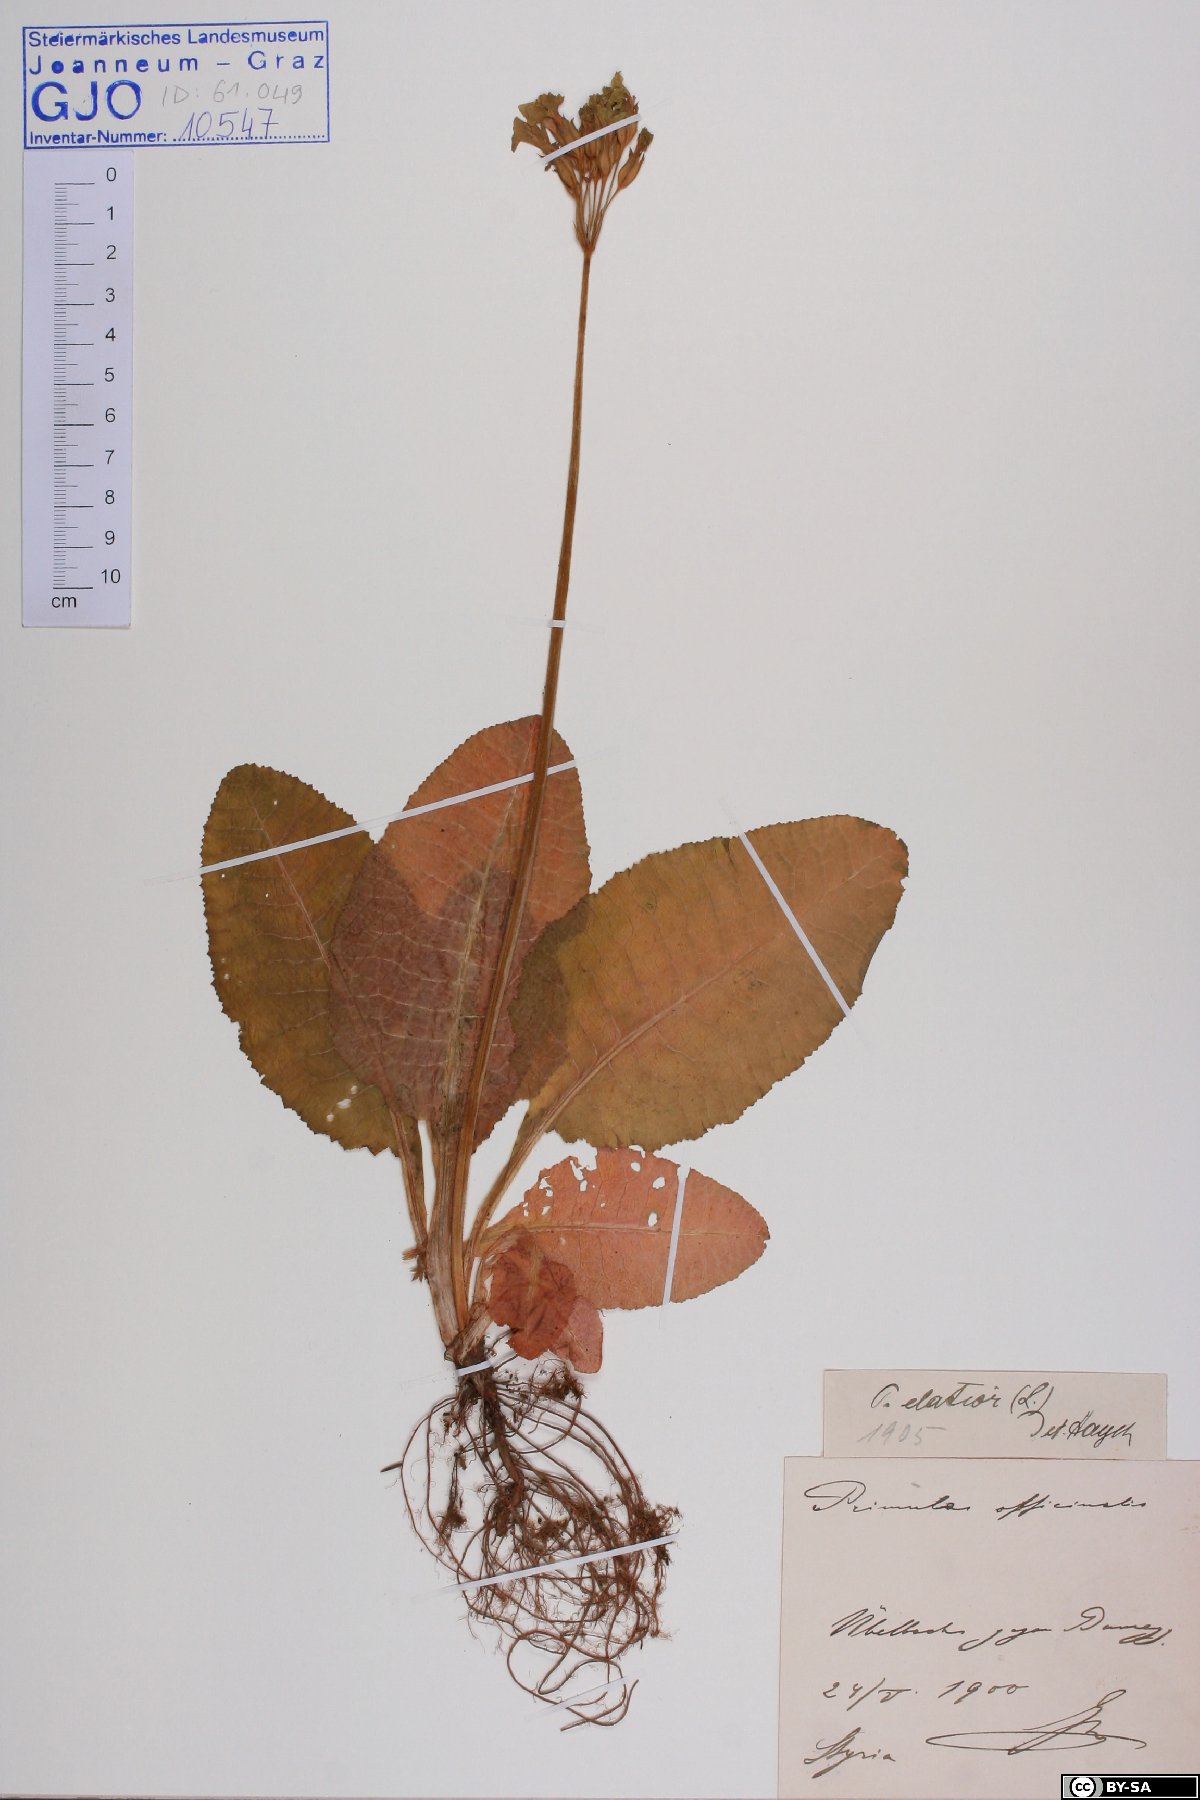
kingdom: Plantae
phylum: Tracheophyta
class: Magnoliopsida
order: Ericales
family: Primulaceae
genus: Primula
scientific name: Primula elatior
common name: Oxlip
